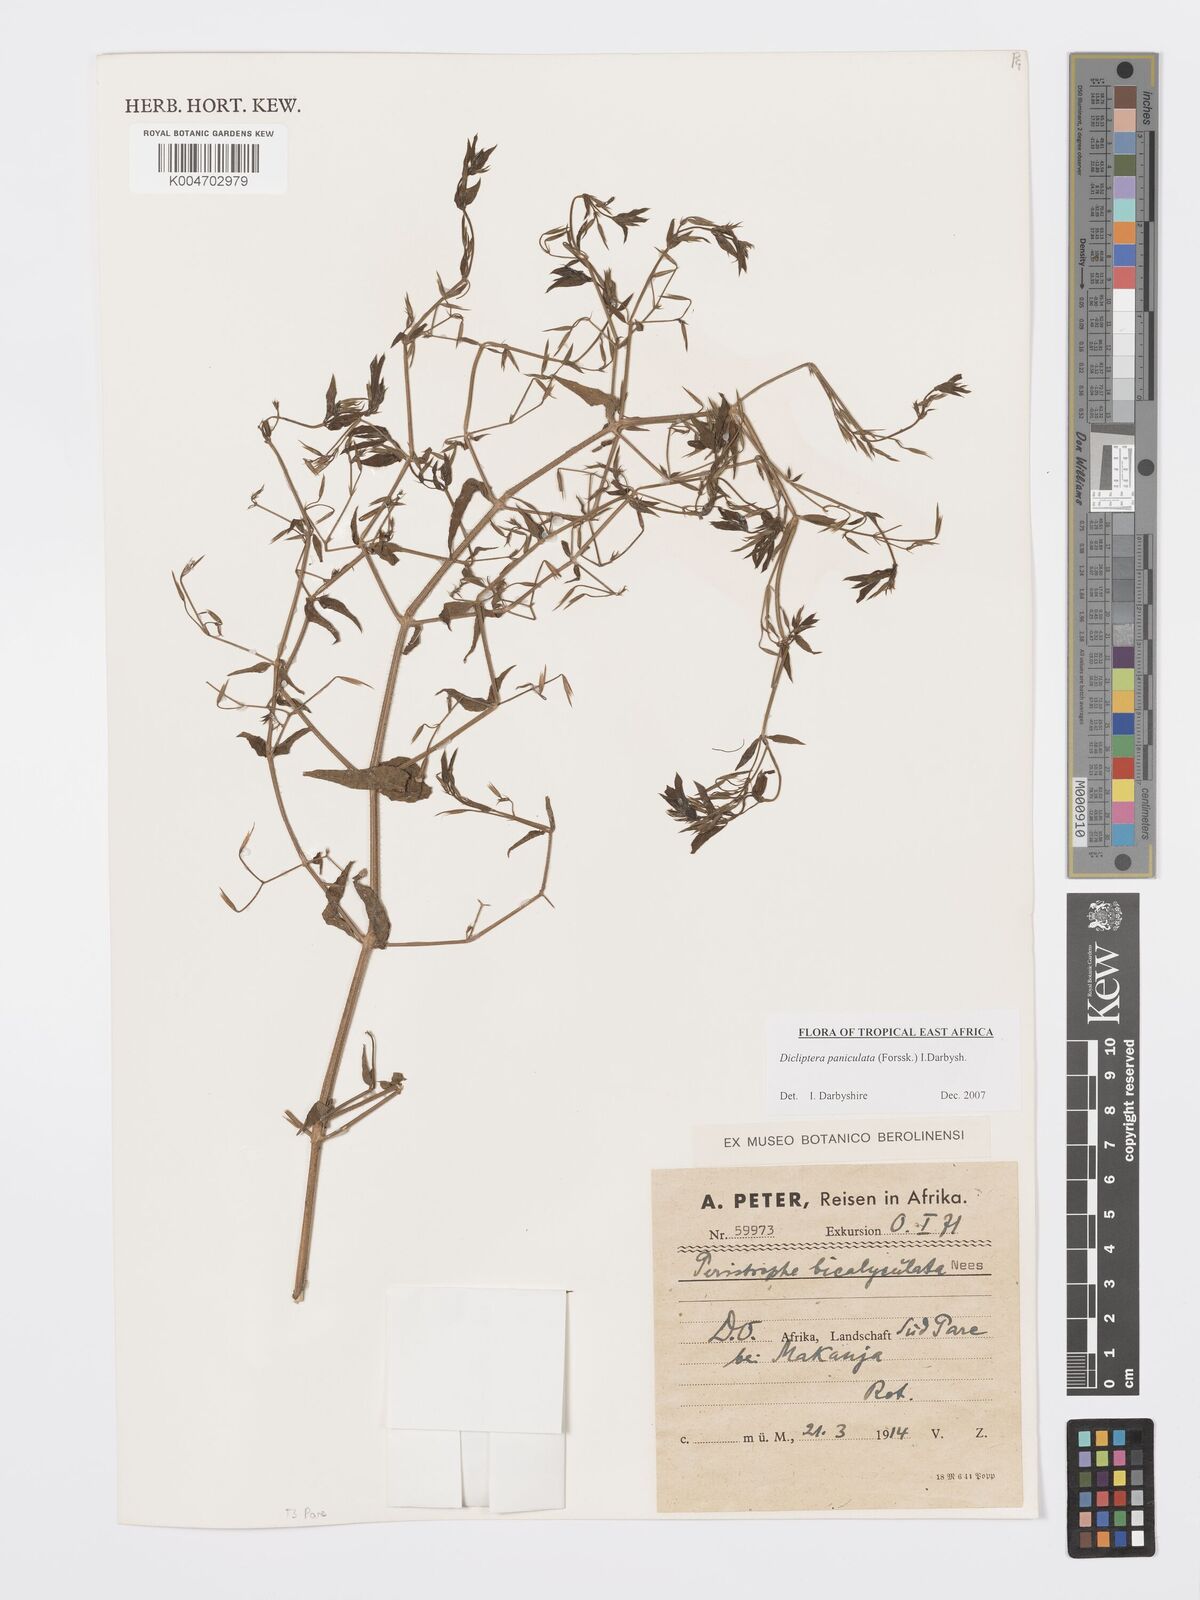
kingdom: Plantae
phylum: Tracheophyta
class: Magnoliopsida
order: Lamiales
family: Acanthaceae
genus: Dicliptera
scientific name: Dicliptera paniculata
